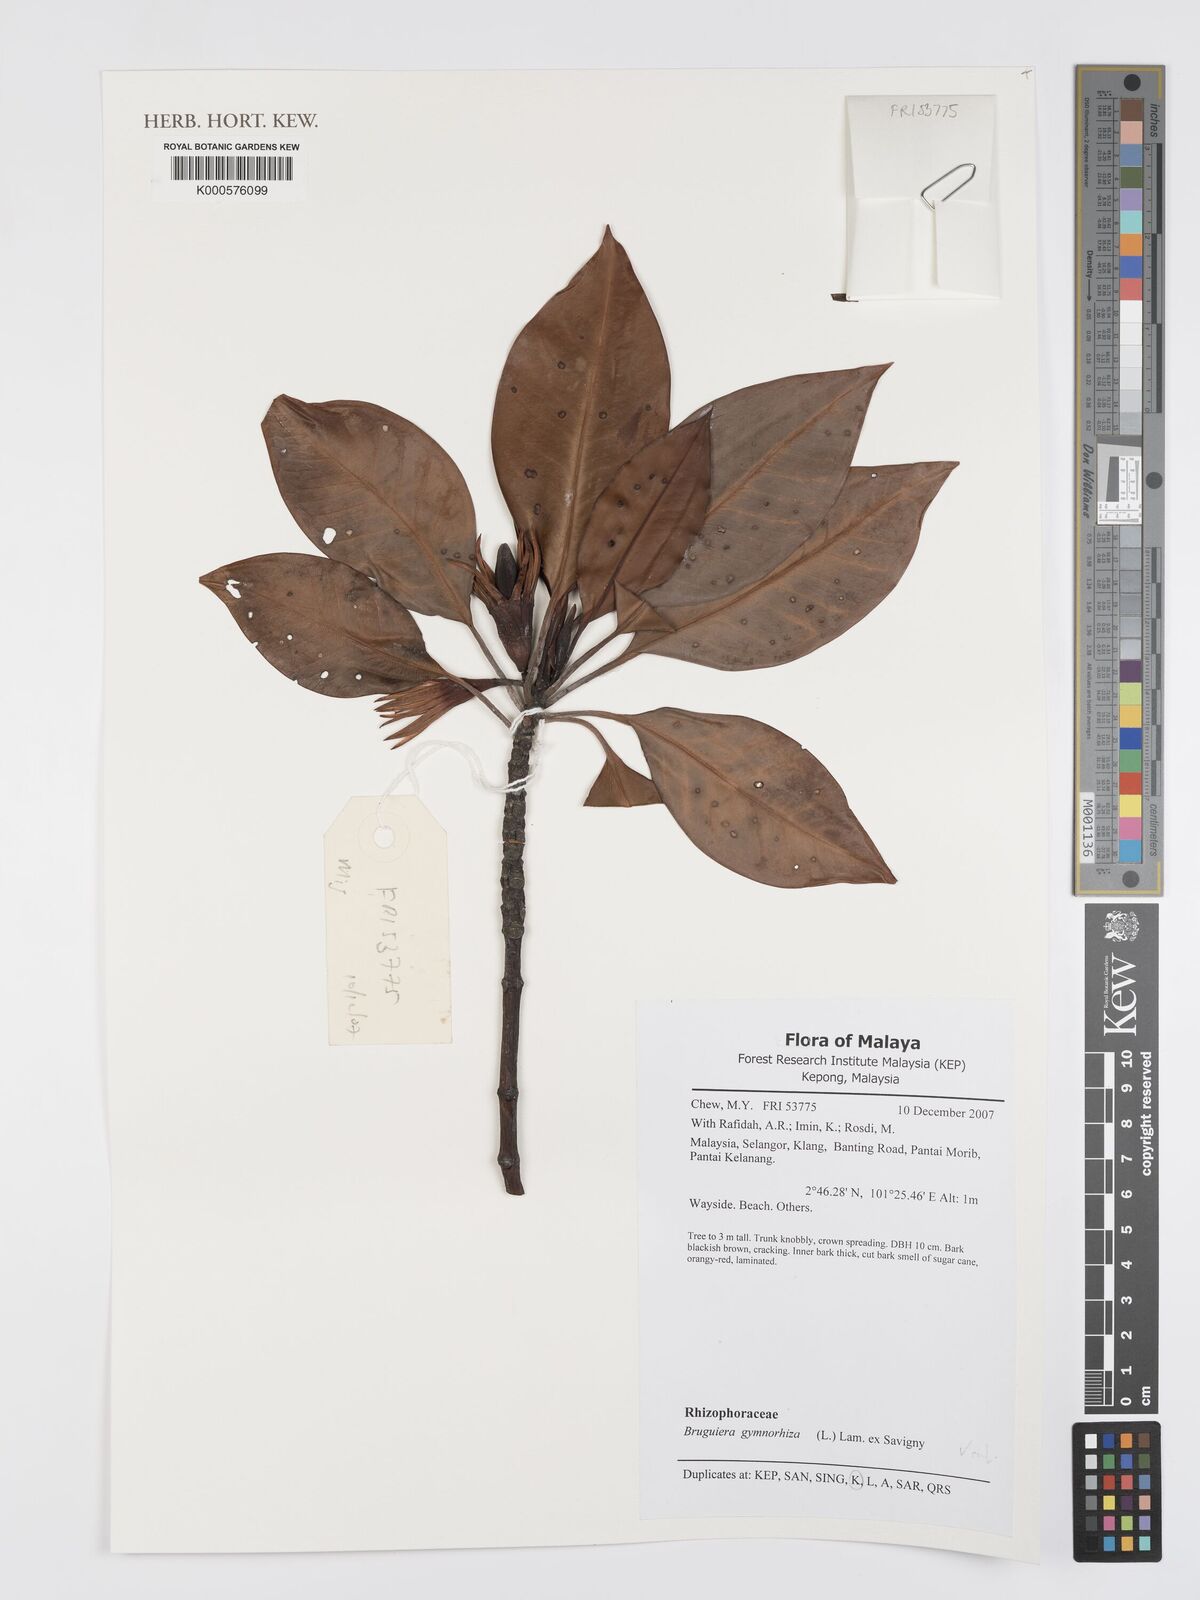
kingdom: Plantae
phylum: Tracheophyta
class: Magnoliopsida
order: Malpighiales
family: Rhizophoraceae
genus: Bruguiera
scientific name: Bruguiera
